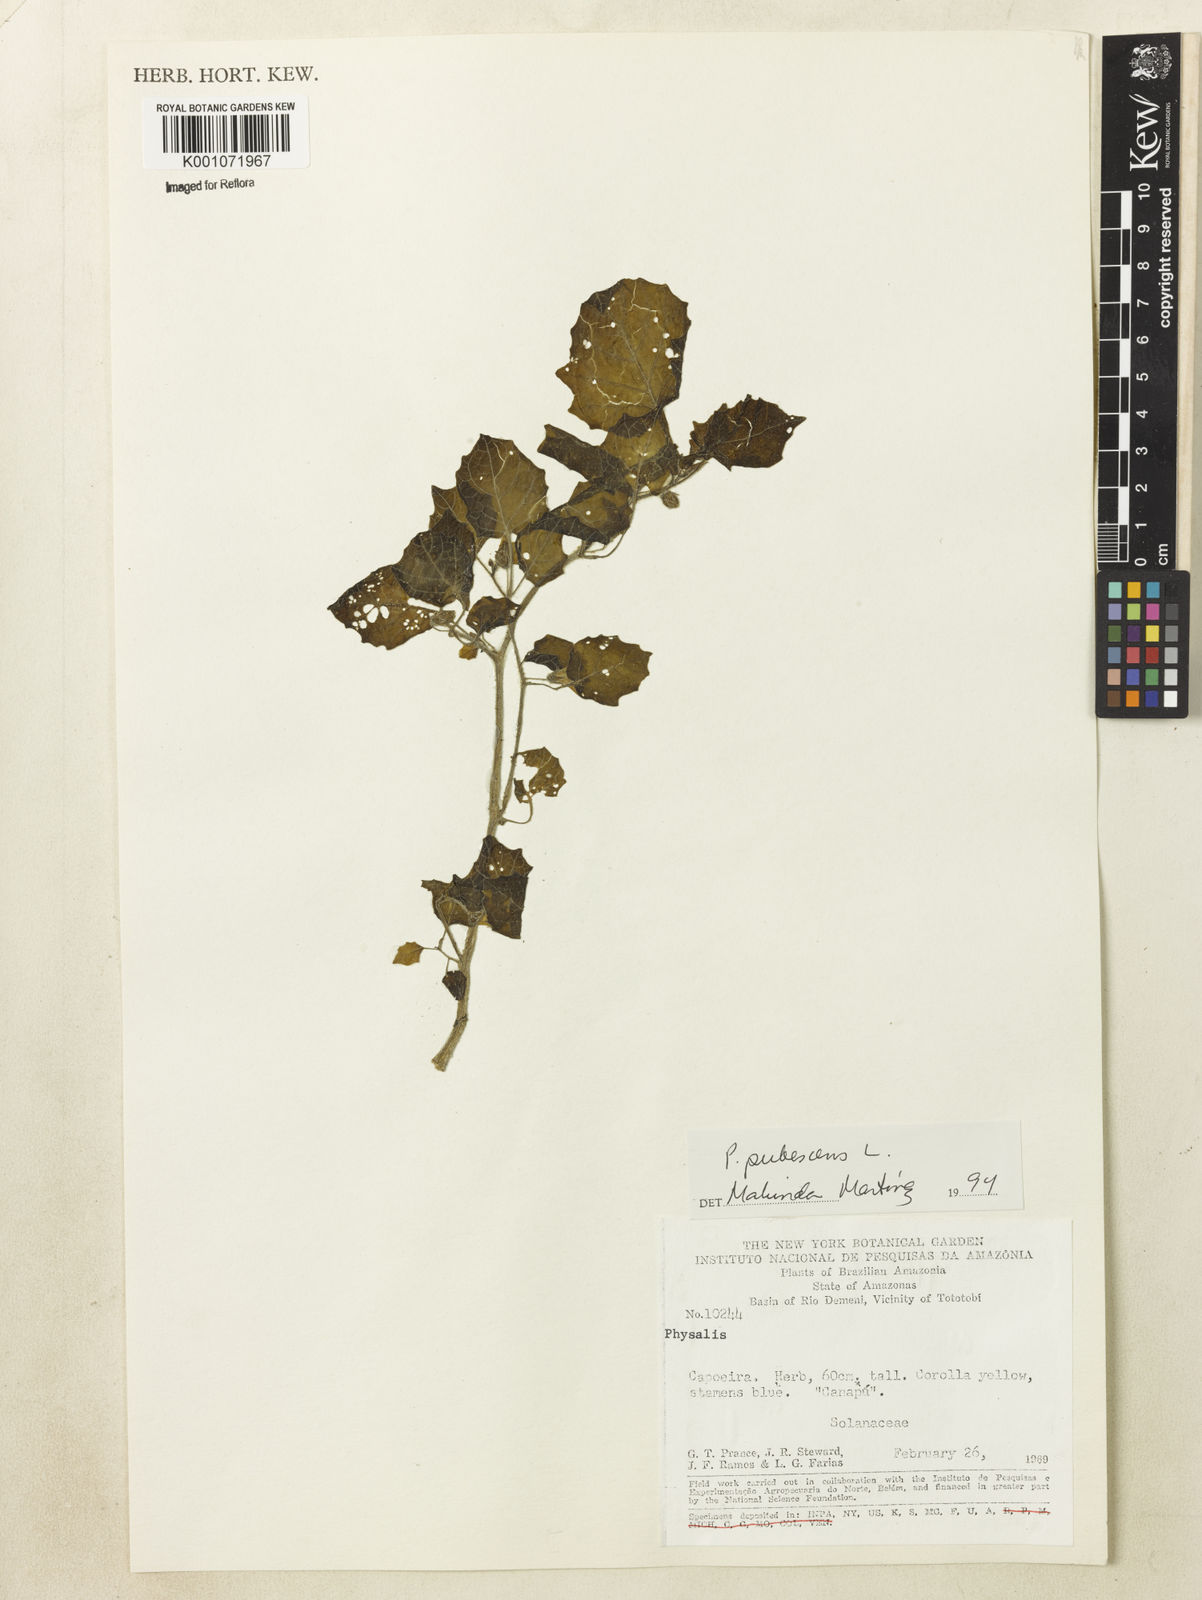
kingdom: Plantae
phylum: Tracheophyta
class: Magnoliopsida
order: Solanales
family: Solanaceae
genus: Physalis
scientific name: Physalis pubescens
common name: Downy ground-cherry
